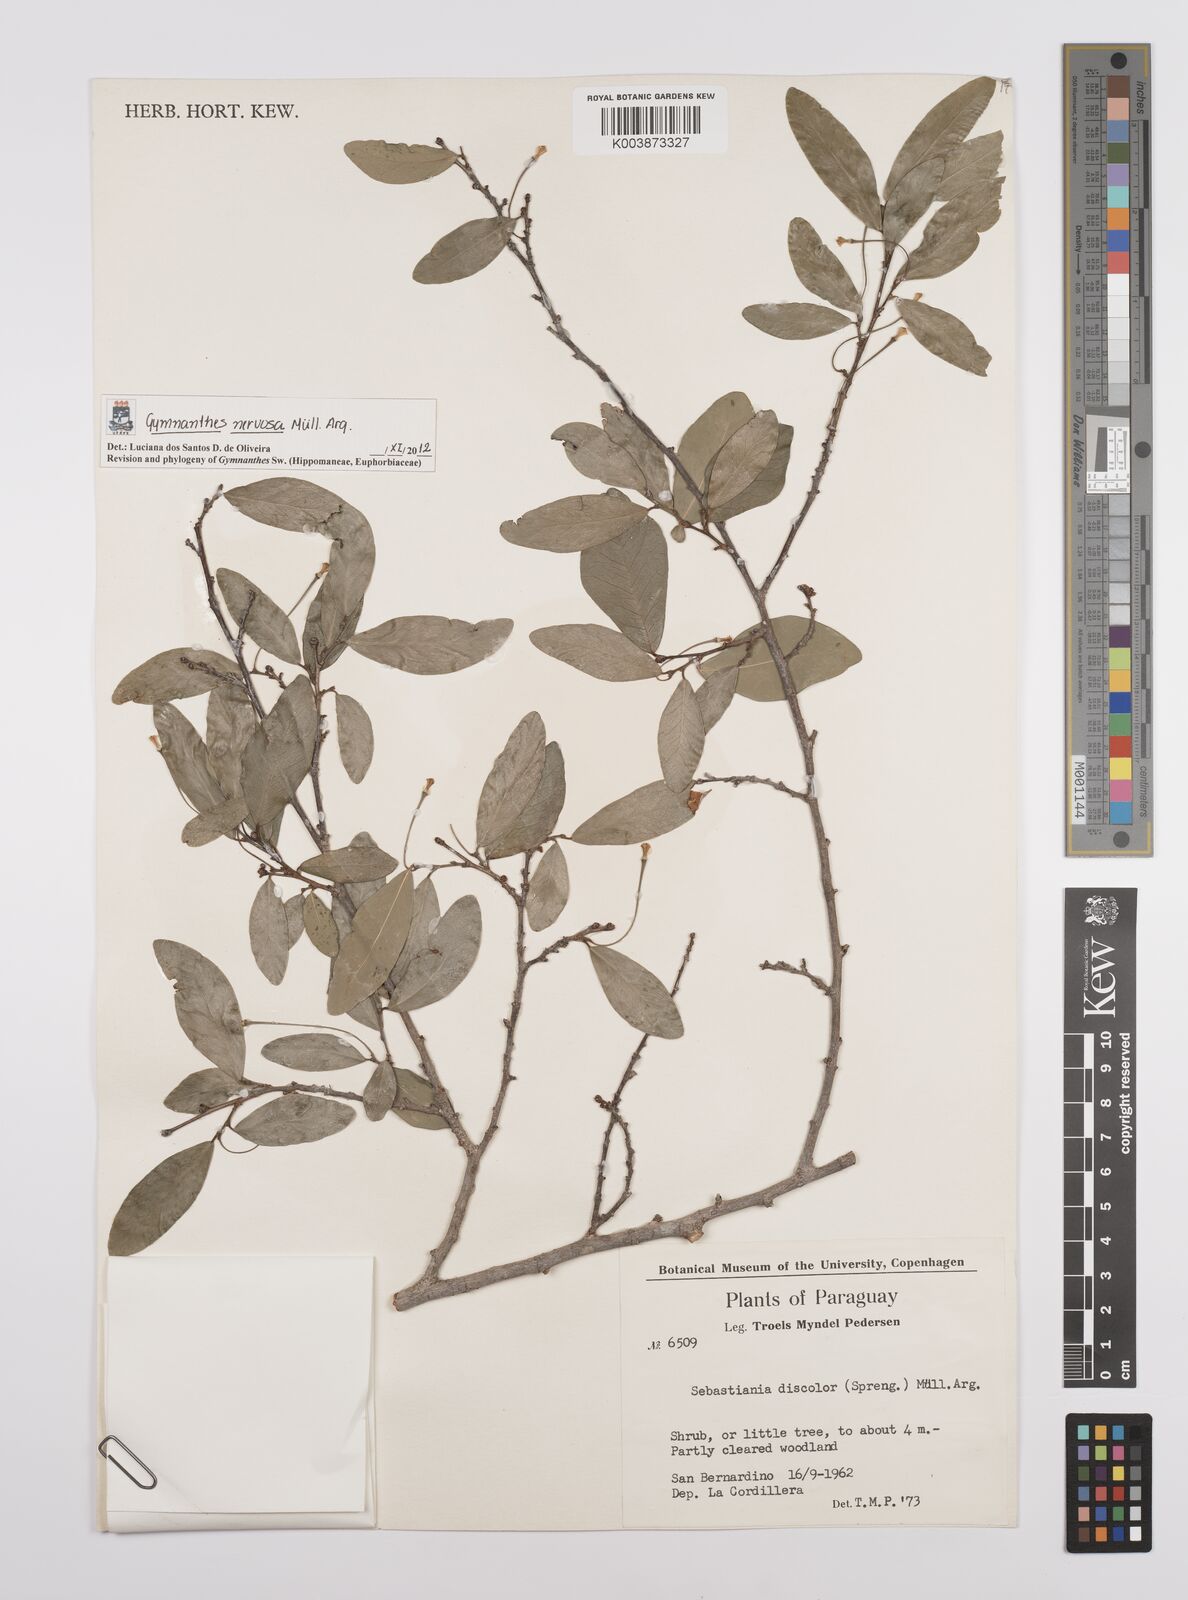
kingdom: Plantae
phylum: Tracheophyta
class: Magnoliopsida
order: Malpighiales
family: Euphorbiaceae
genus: Gymnanthes
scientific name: Gymnanthes nervosa
